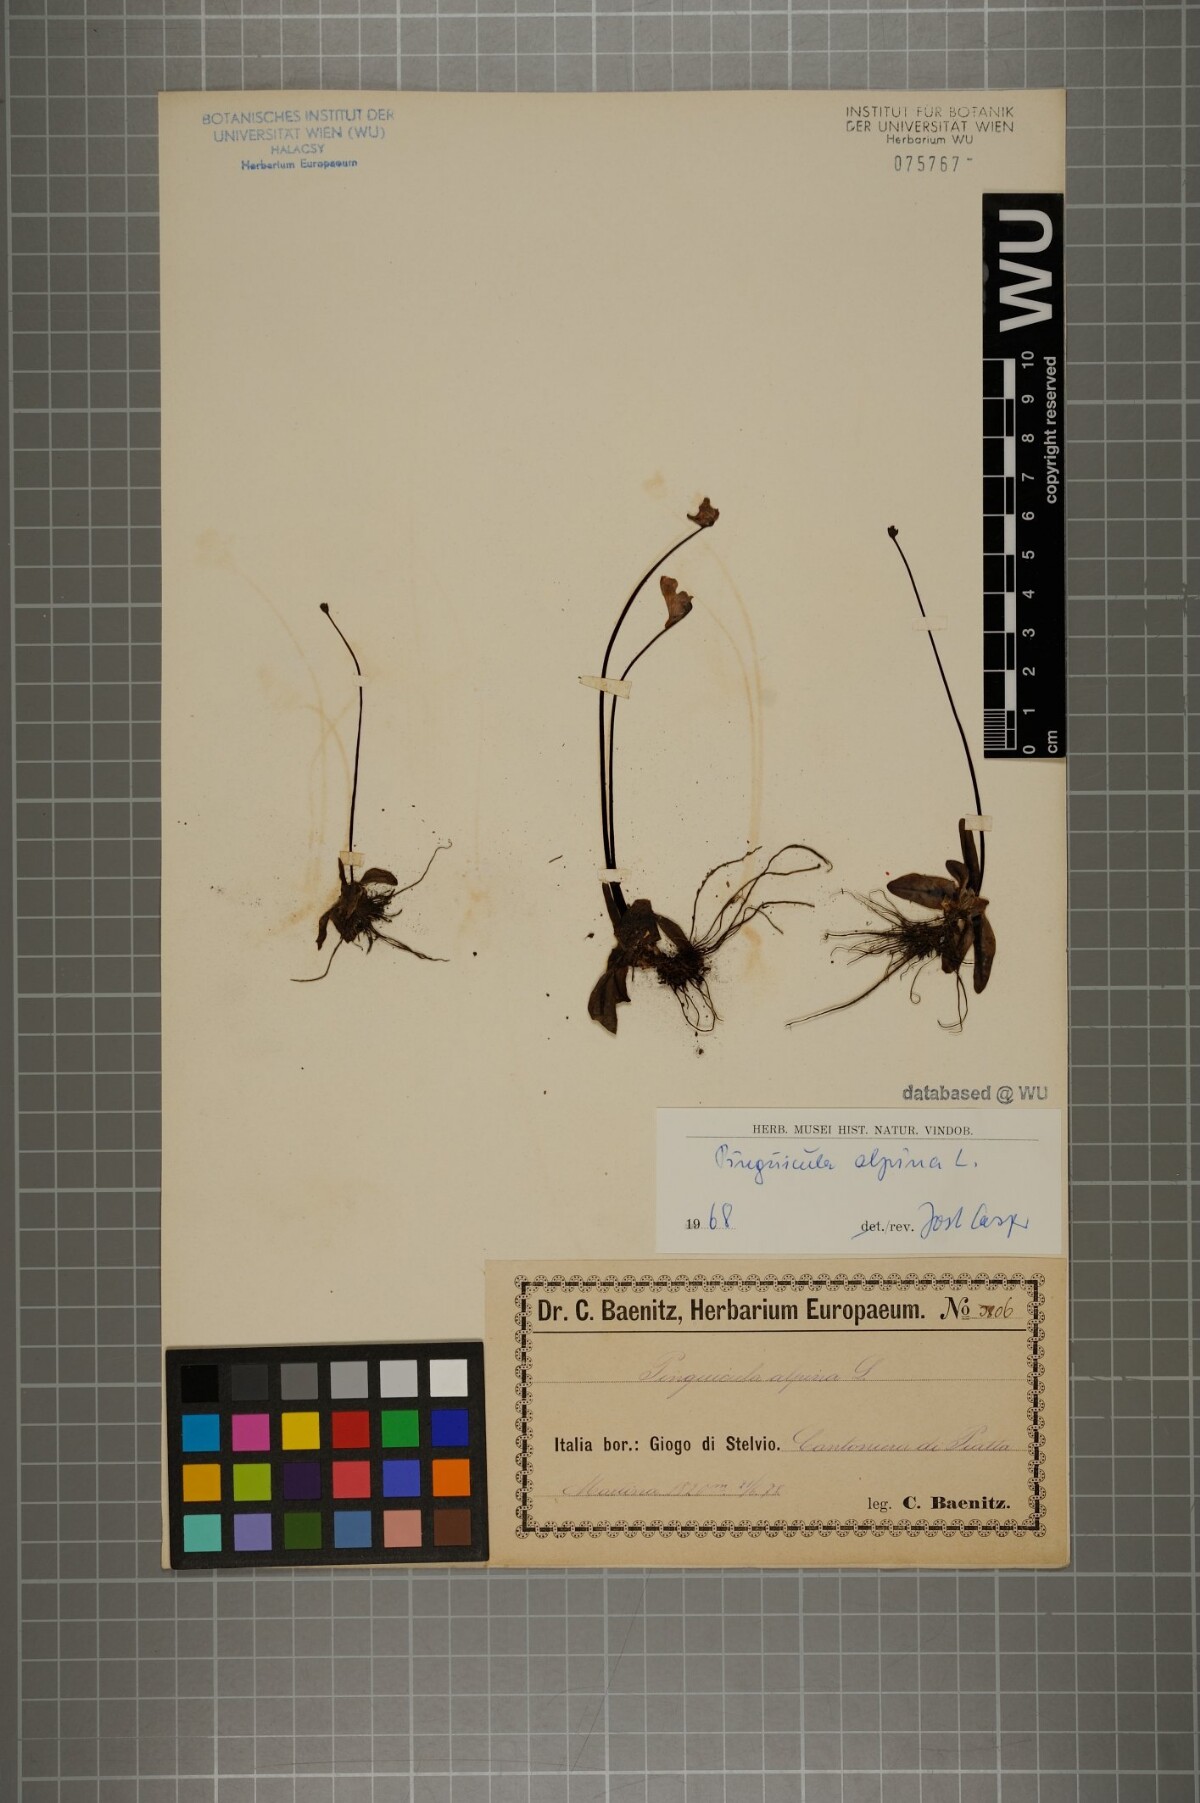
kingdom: Plantae
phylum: Tracheophyta
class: Magnoliopsida
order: Lamiales
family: Lentibulariaceae
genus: Pinguicula
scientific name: Pinguicula alpina
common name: Alpine butterwort
